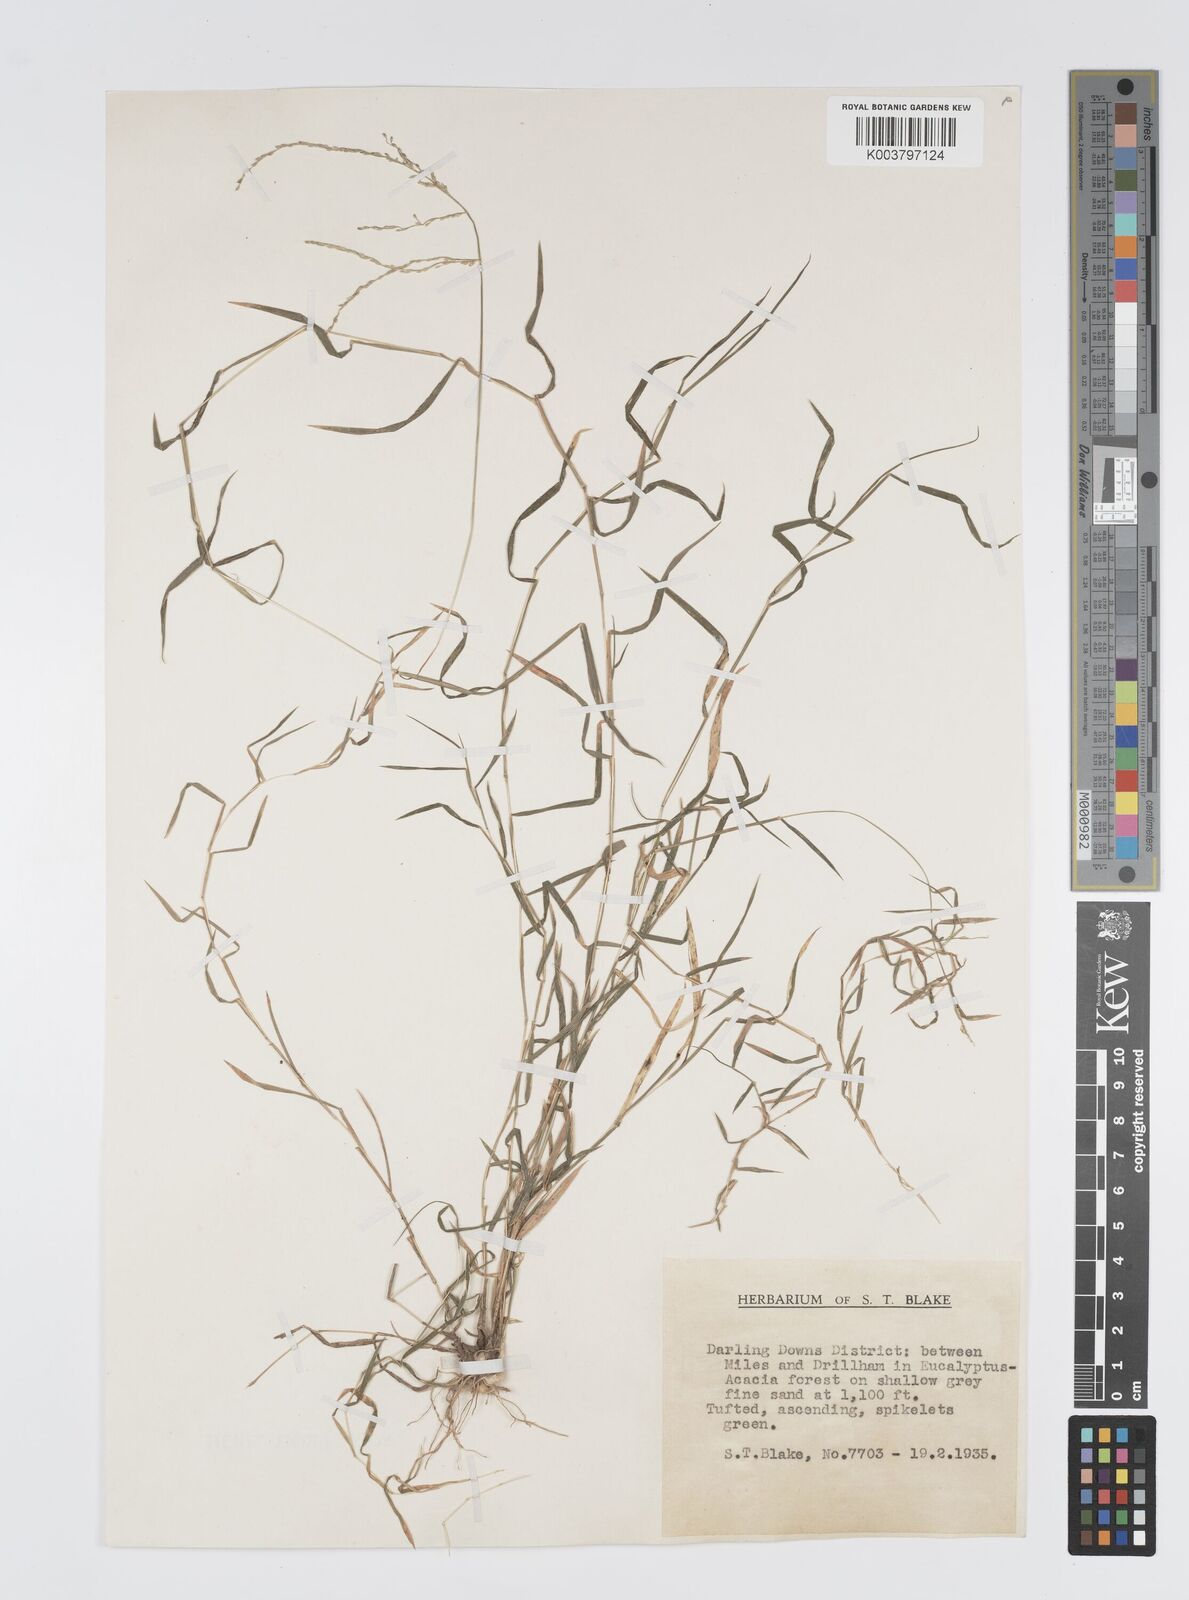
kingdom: Plantae
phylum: Tracheophyta
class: Liliopsida
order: Poales
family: Poaceae
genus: Digitaria
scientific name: Digitaria diffusa
